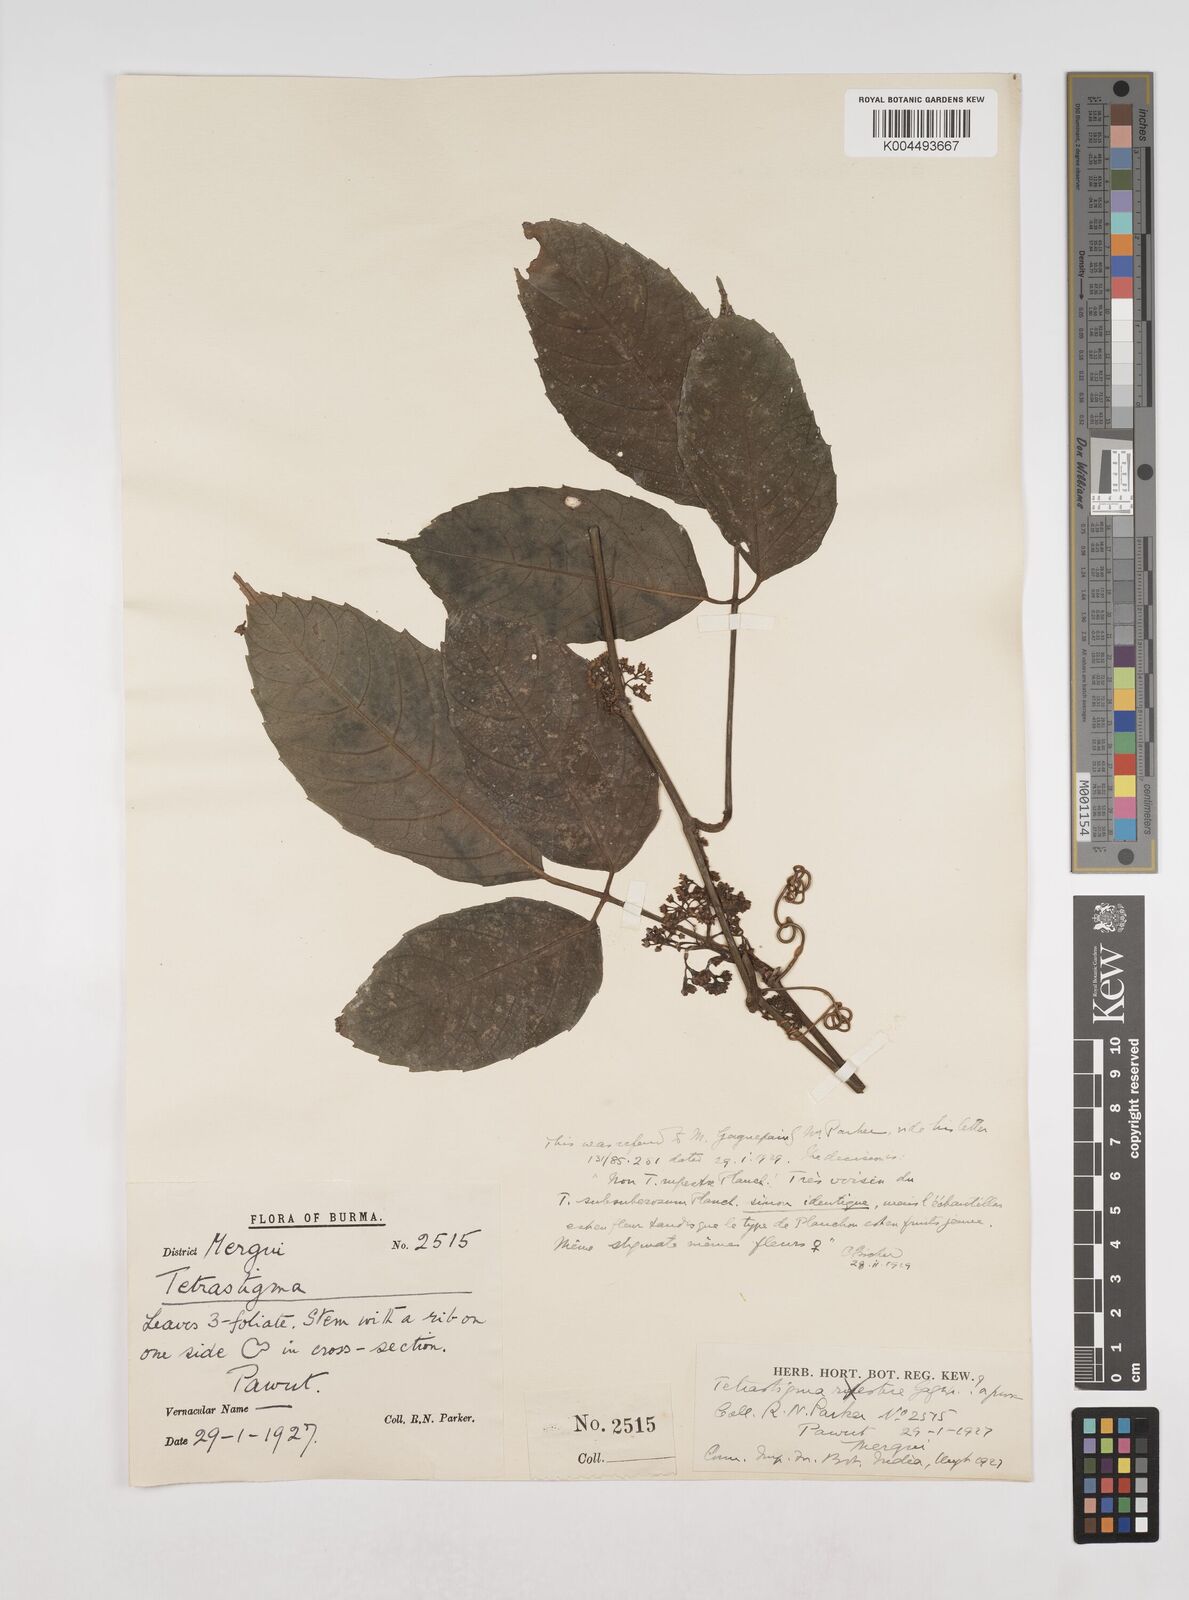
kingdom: Plantae
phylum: Tracheophyta
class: Magnoliopsida
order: Vitales
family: Vitaceae
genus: Tetrastigma
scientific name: Tetrastigma subsuberosum
